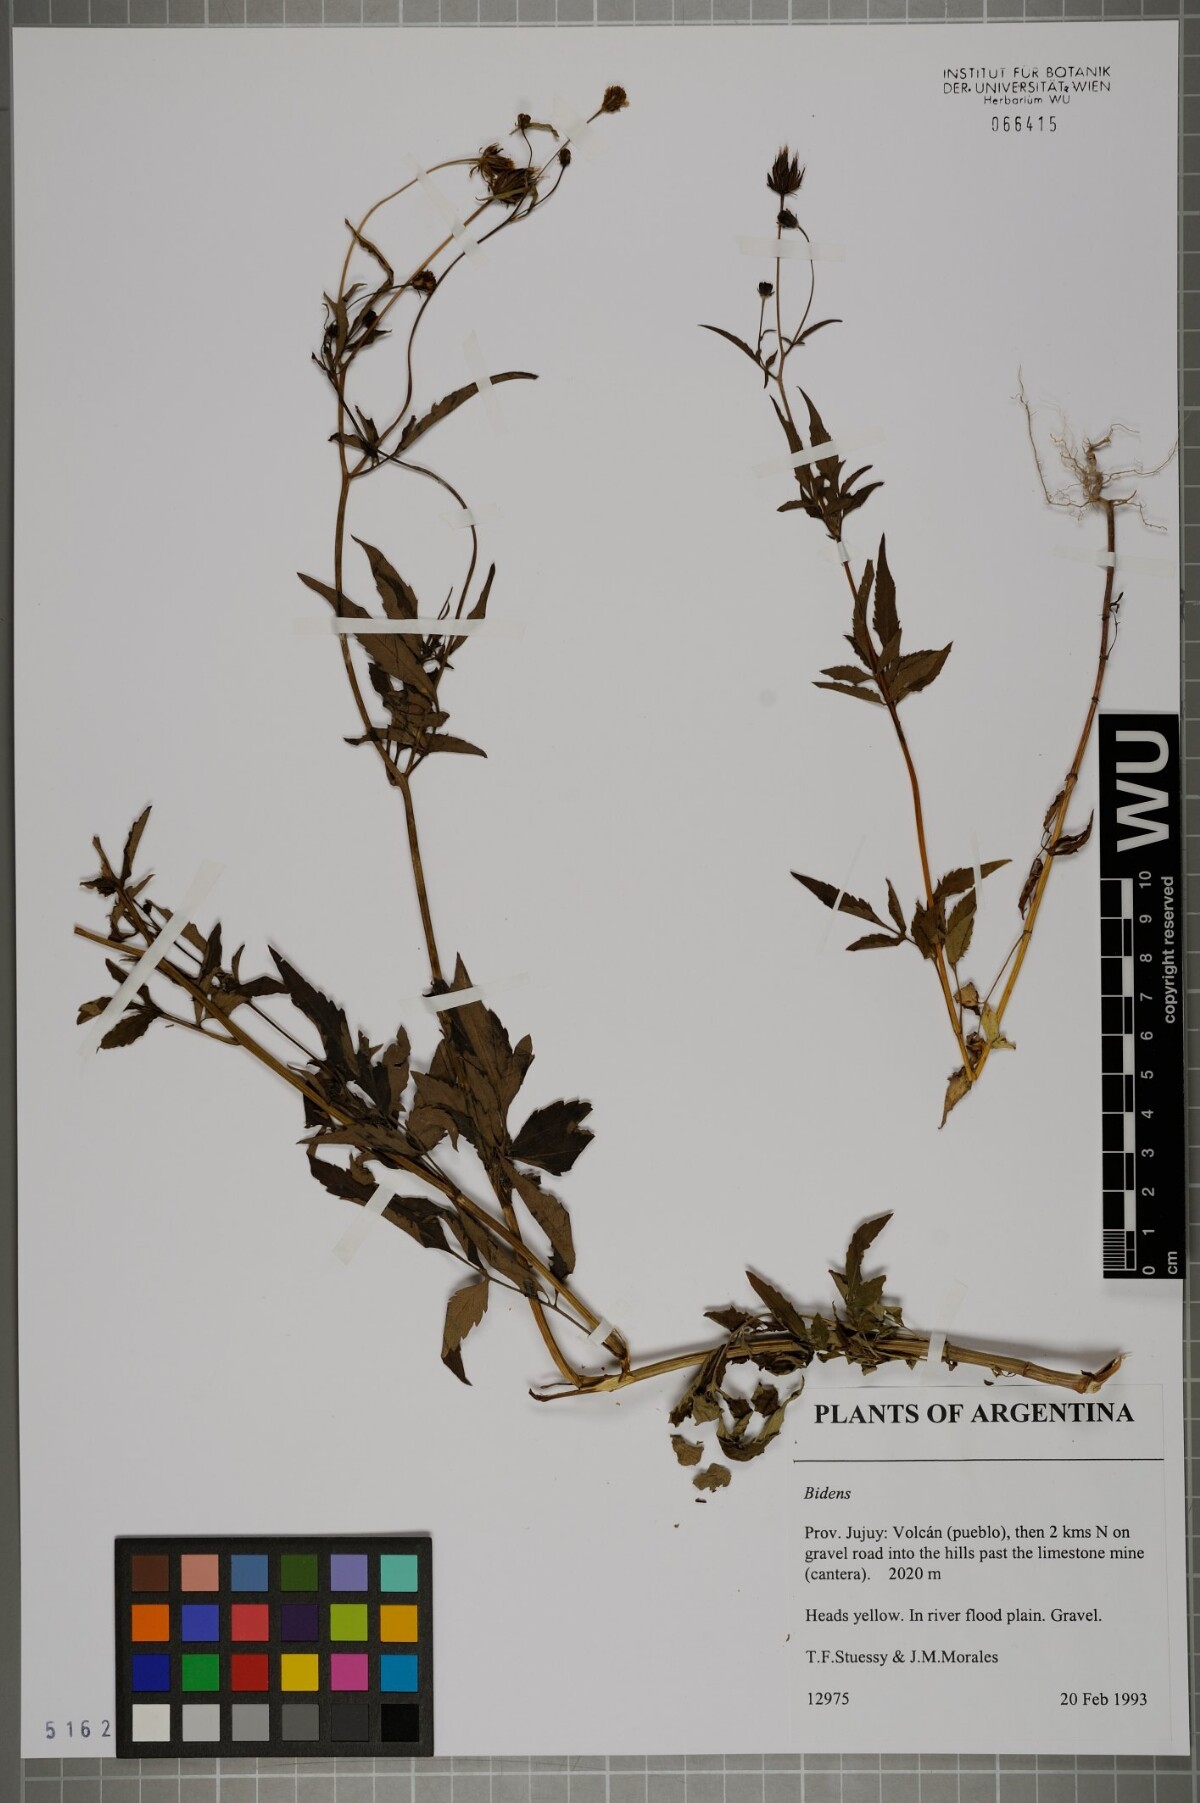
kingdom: Plantae
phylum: Tracheophyta
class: Magnoliopsida
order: Asterales
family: Asteraceae
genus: Bidens
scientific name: Bidens
